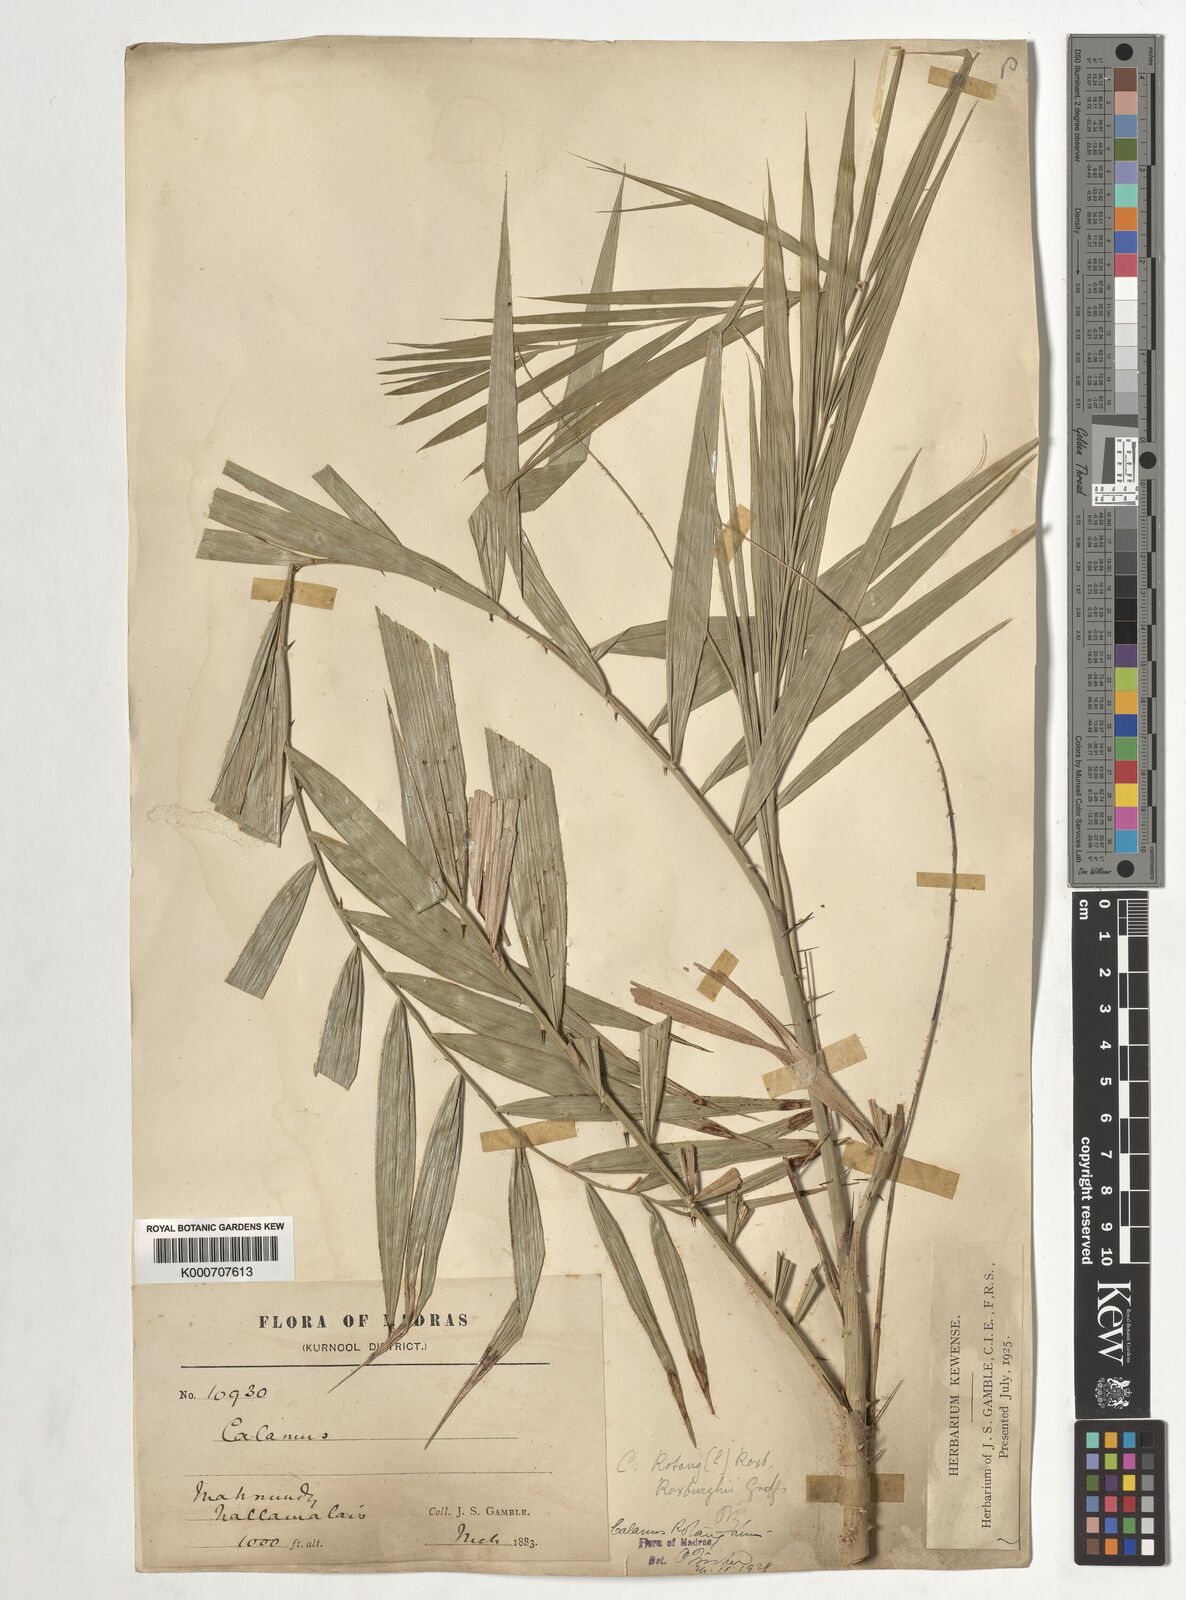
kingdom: Plantae
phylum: Tracheophyta
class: Liliopsida
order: Arecales
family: Arecaceae
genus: Calamus
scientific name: Calamus rotang
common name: Rattan cane
